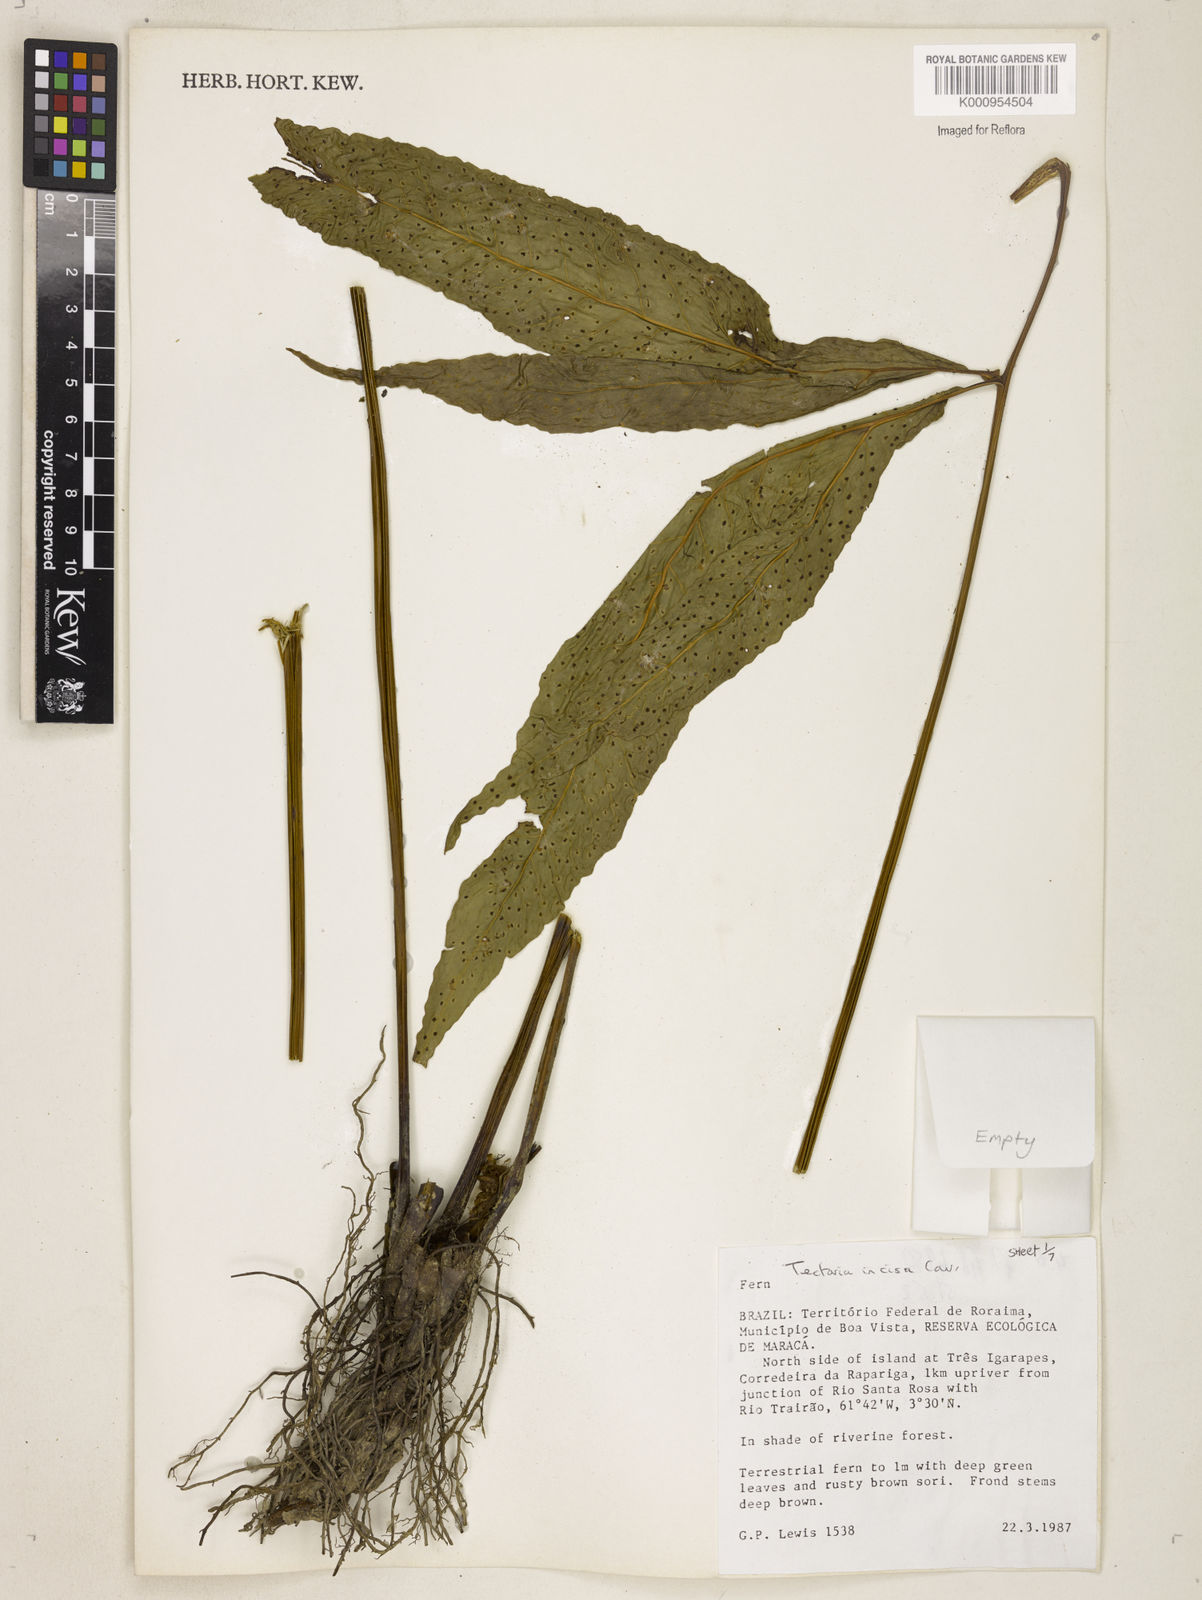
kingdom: Plantae
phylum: Tracheophyta
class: Polypodiopsida
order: Polypodiales
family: Tectariaceae
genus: Tectaria
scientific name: Tectaria incisa
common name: Incised halberd fern
